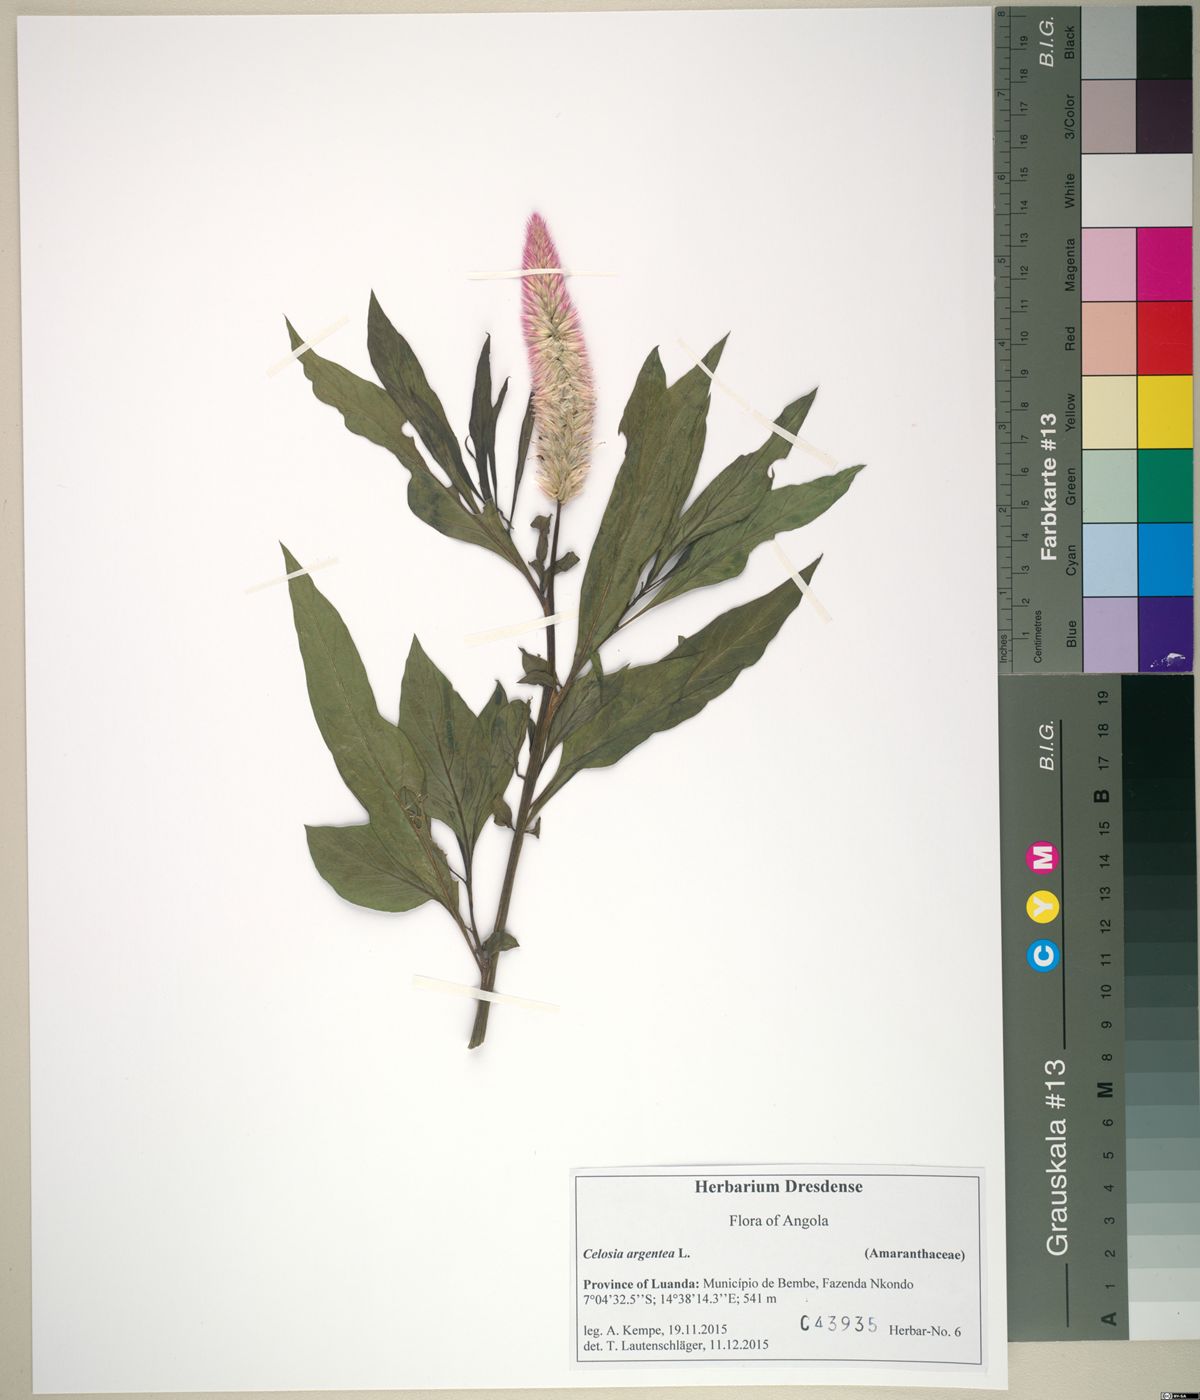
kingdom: Plantae
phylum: Tracheophyta
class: Magnoliopsida
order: Caryophyllales
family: Amaranthaceae
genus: Celosia
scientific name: Celosia argentea
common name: Feather cockscomb
